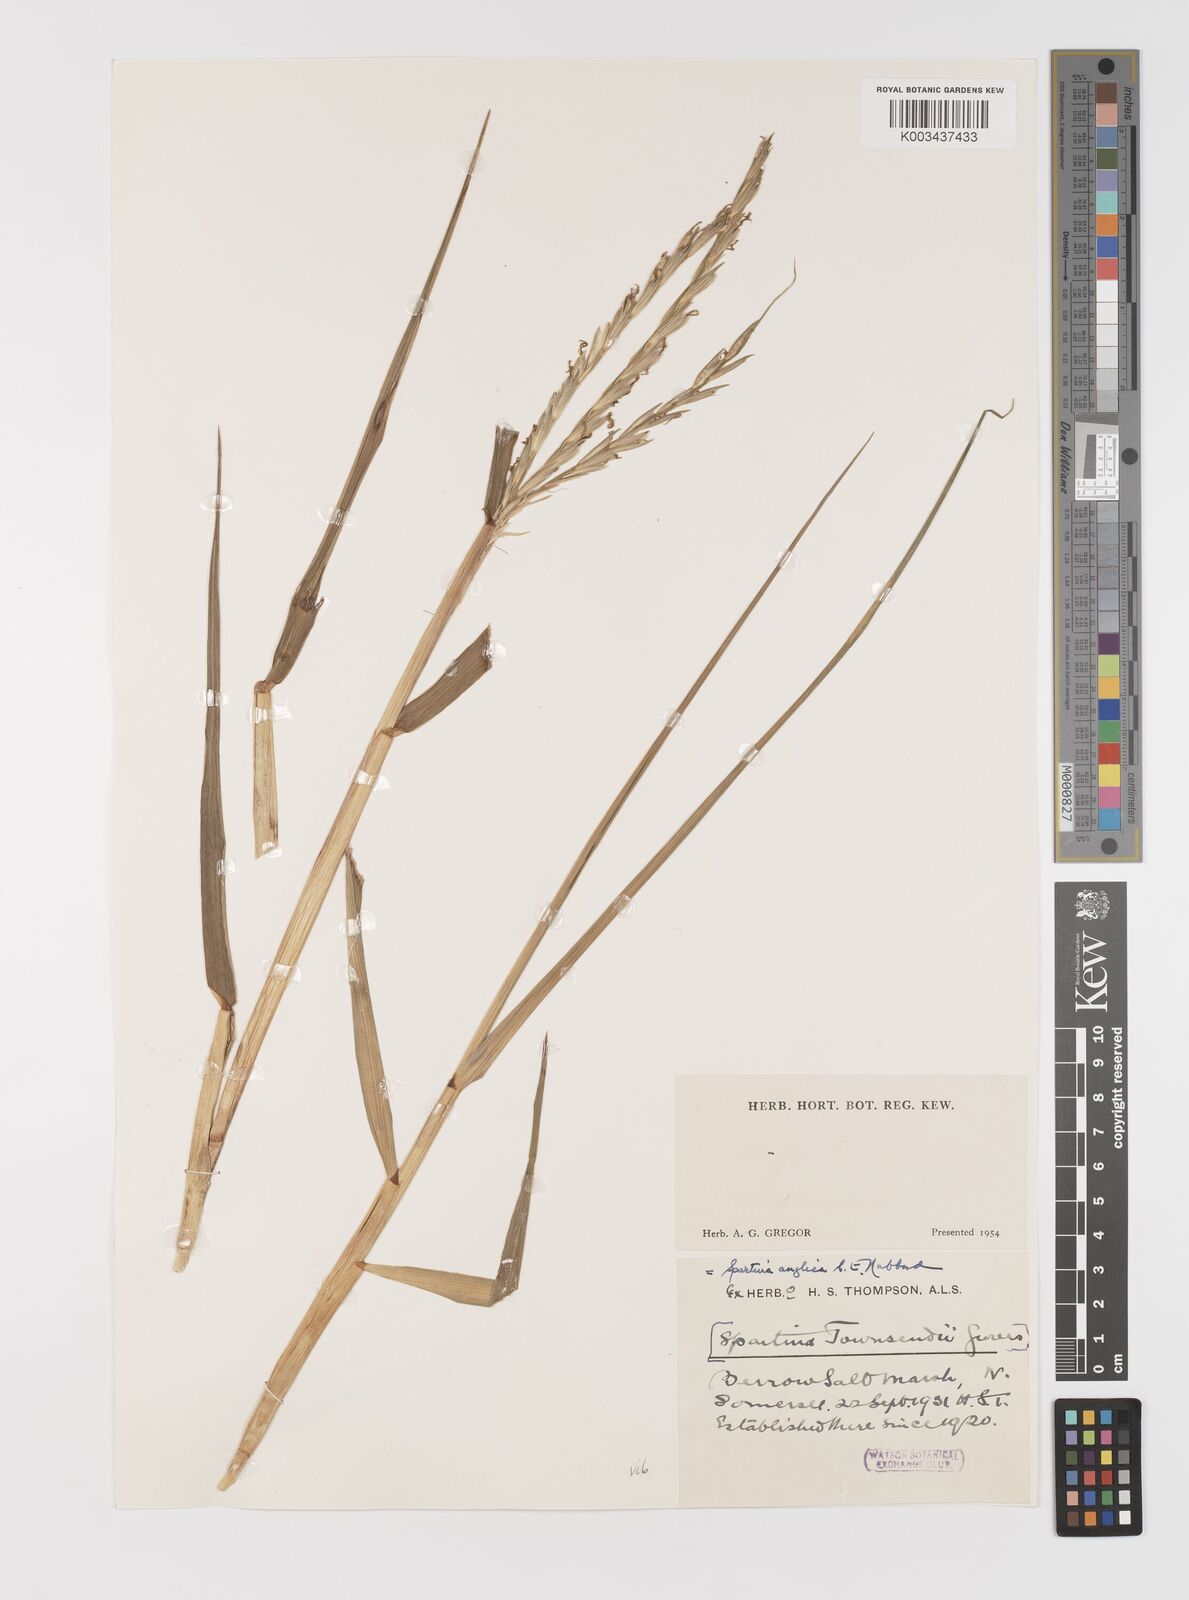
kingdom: Plantae
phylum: Tracheophyta
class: Liliopsida
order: Poales
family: Poaceae
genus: Sporobolus
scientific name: Sporobolus anglicus
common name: English cordgrass
